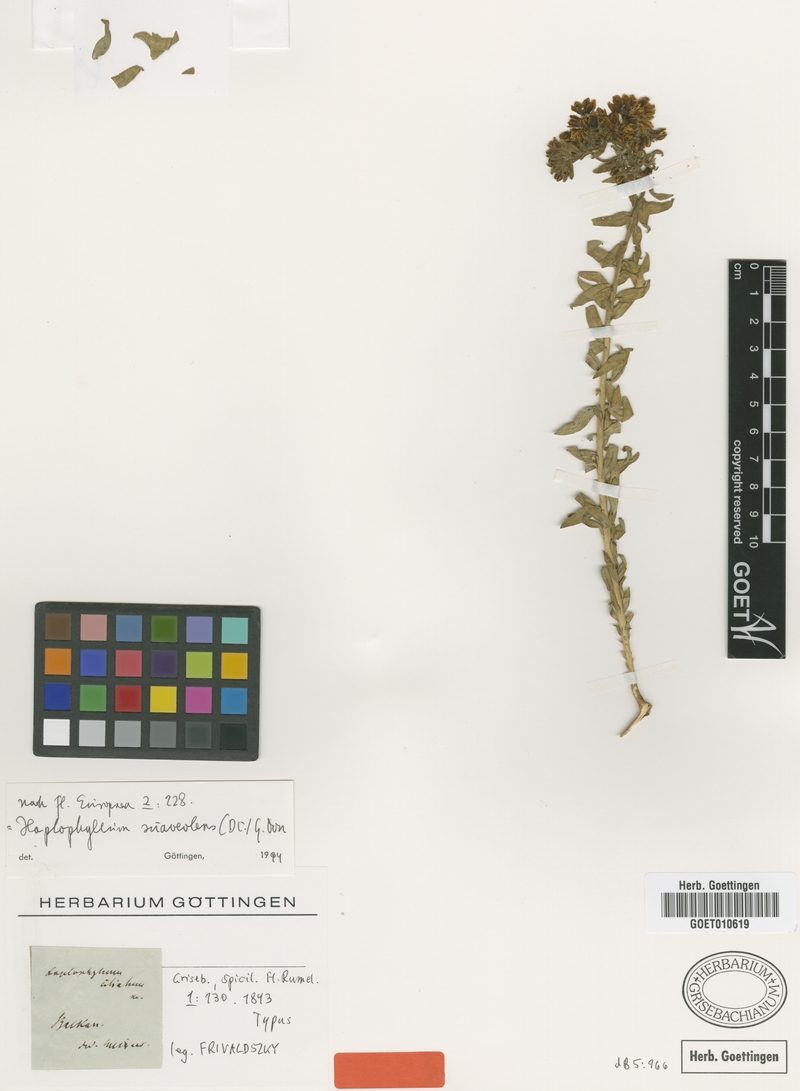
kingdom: Plantae
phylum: Tracheophyta
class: Magnoliopsida
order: Sapindales
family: Rutaceae
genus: Haplophyllum
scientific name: Haplophyllum suaveolens
